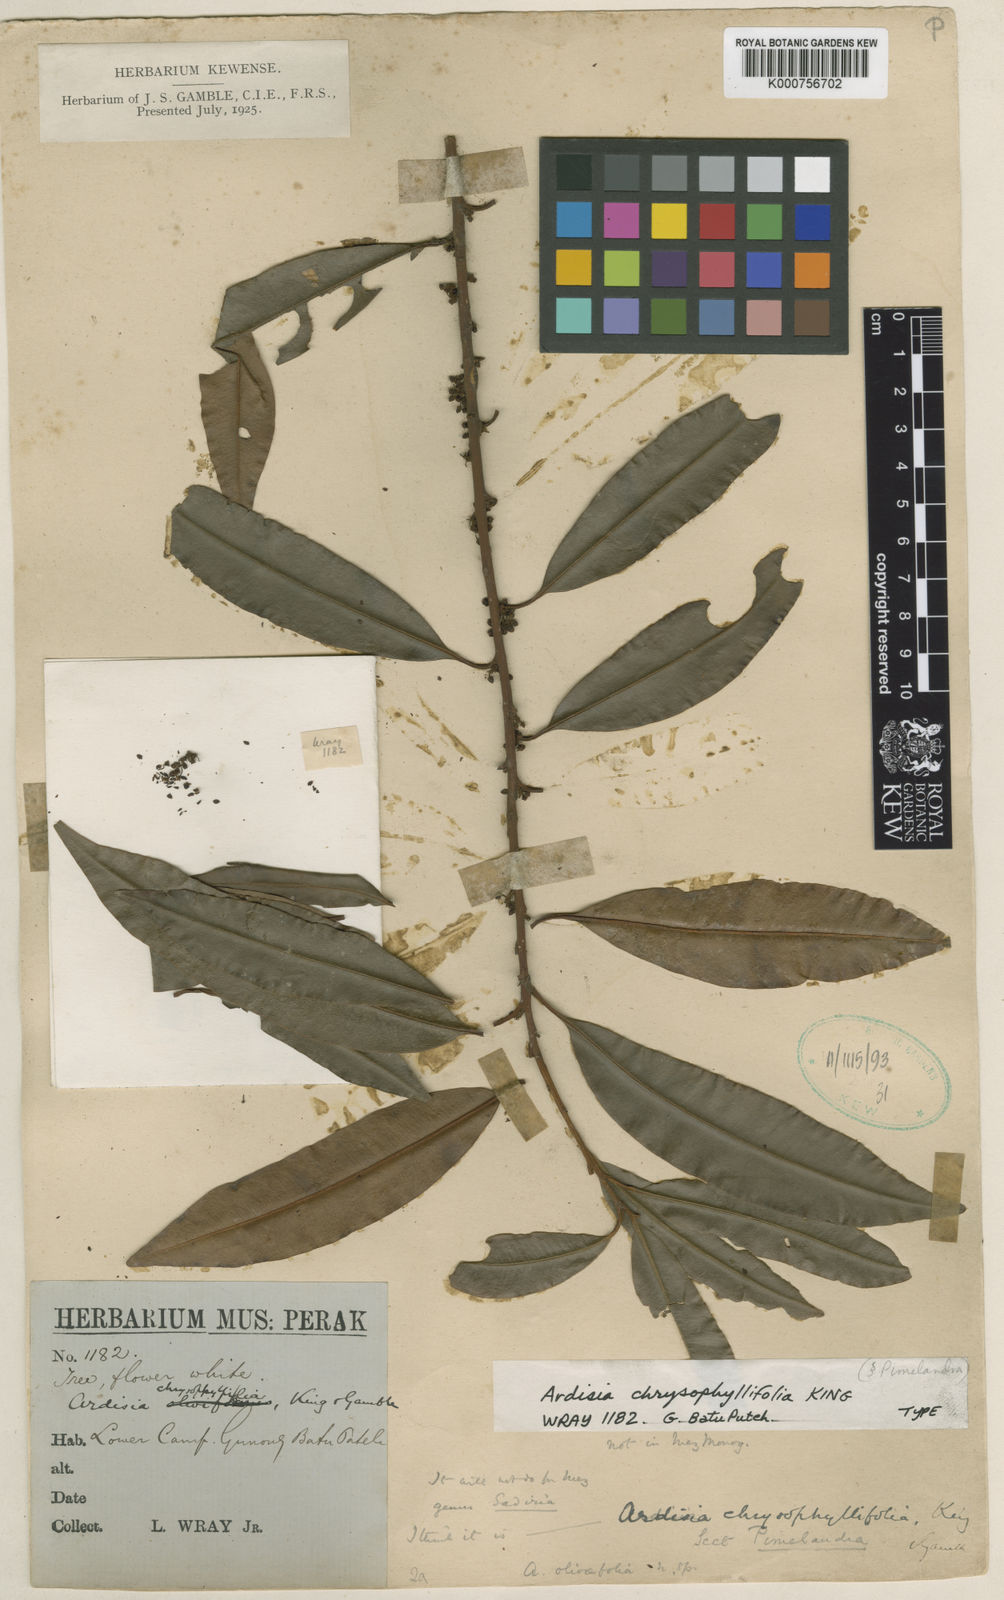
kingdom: Plantae
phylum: Tracheophyta
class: Magnoliopsida
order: Ericales
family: Primulaceae
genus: Ardisia
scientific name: Ardisia
